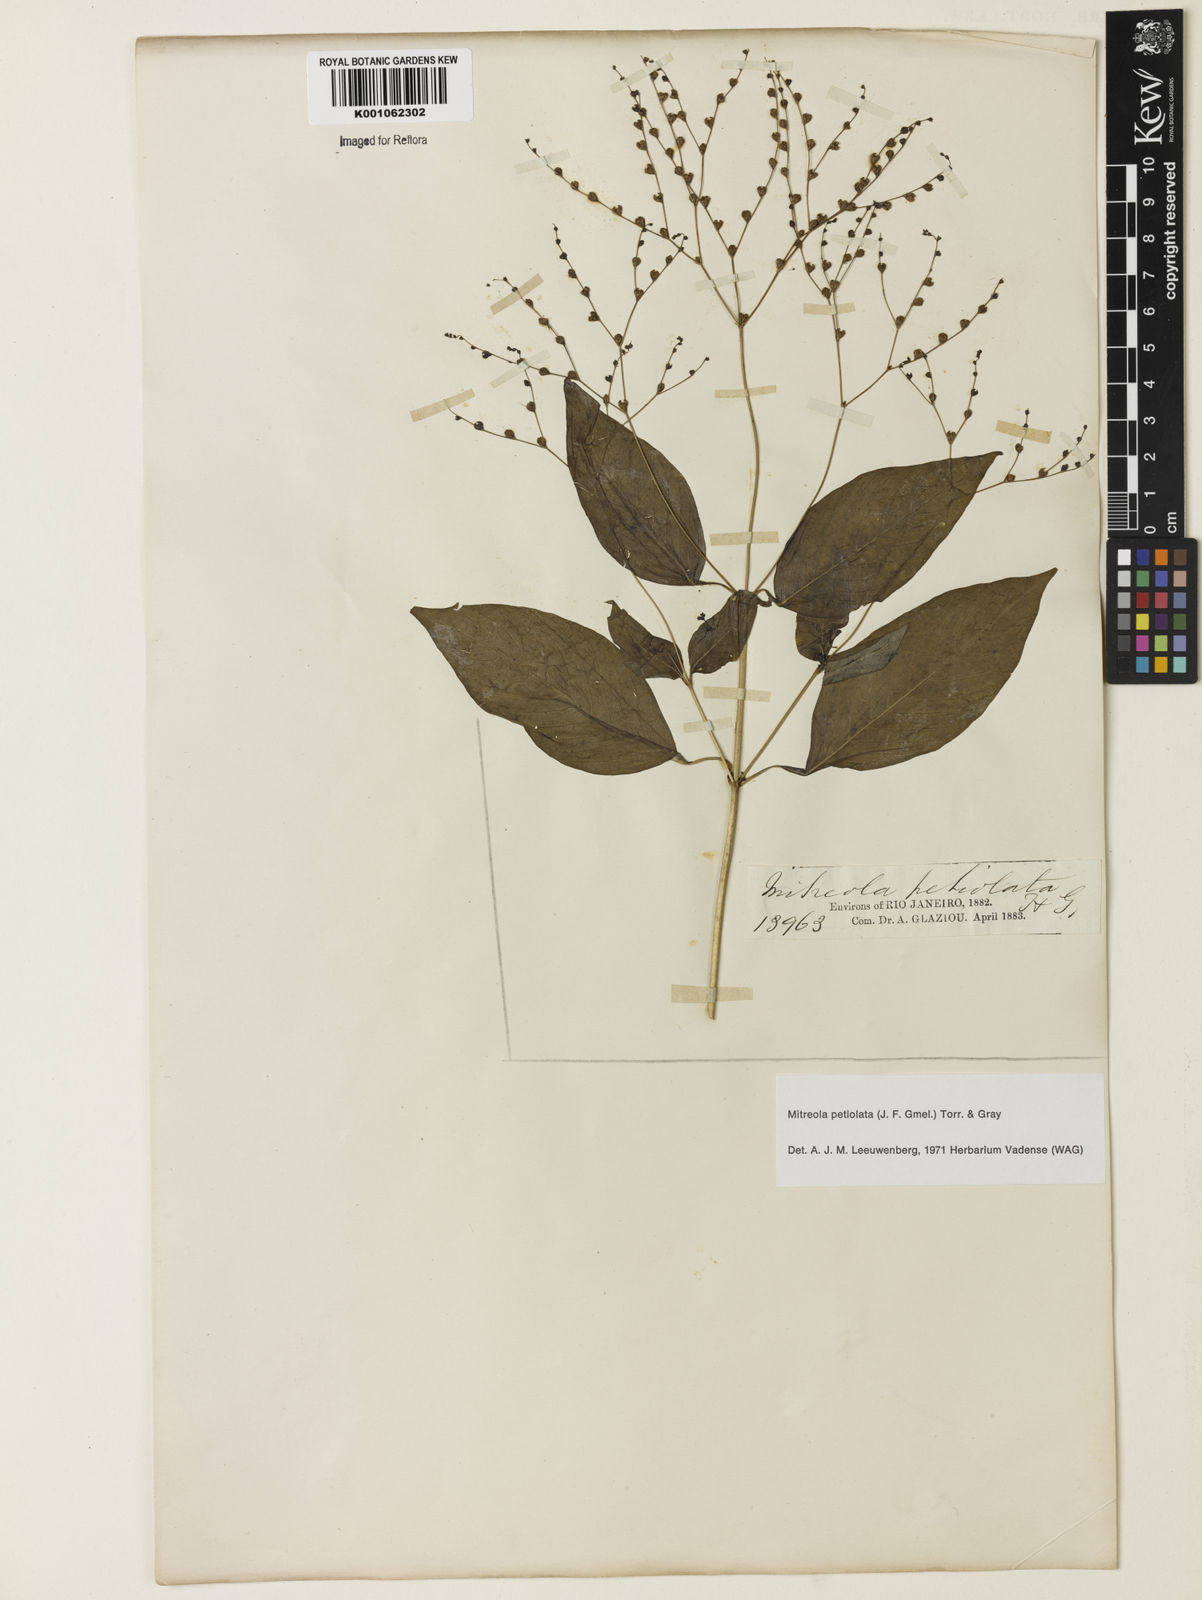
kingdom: Plantae
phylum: Tracheophyta
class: Magnoliopsida
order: Gentianales
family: Loganiaceae
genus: Mitreola
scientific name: Mitreola petiolata
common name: Lax hornpod
